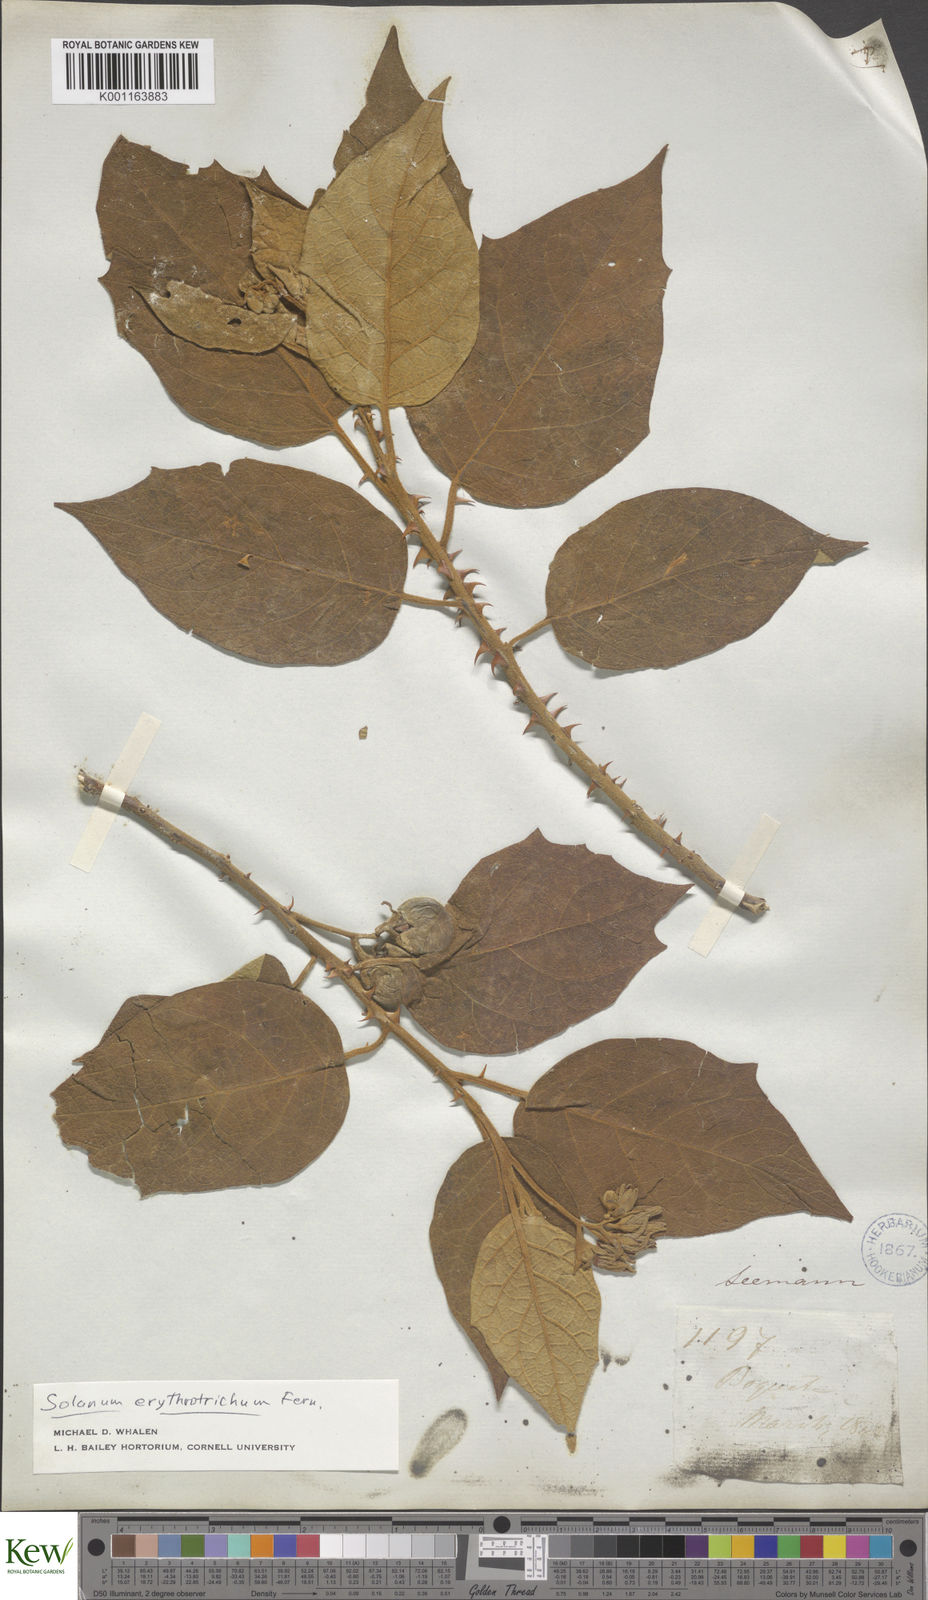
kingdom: Plantae
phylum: Tracheophyta
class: Magnoliopsida
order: Solanales
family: Solanaceae
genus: Solanum
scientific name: Solanum erythrotrichum
